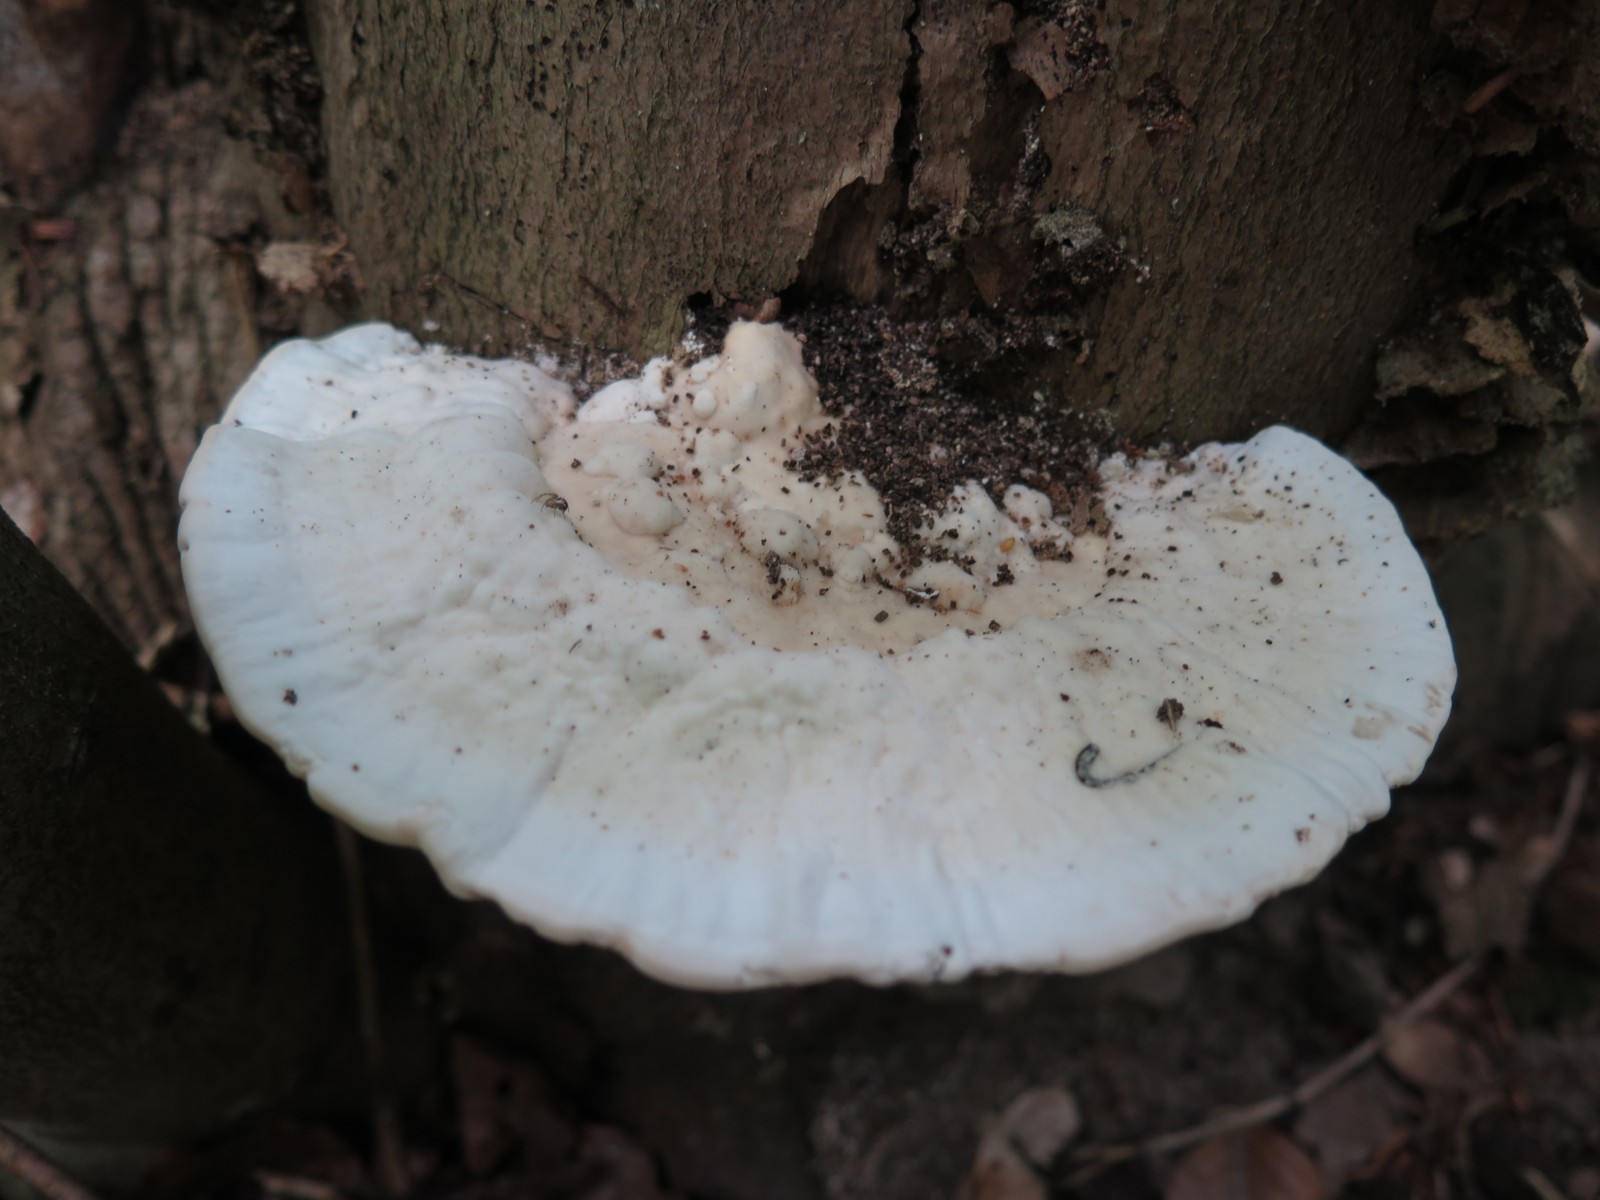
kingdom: Fungi
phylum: Basidiomycota
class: Agaricomycetes
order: Polyporales
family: Polyporaceae
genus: Trametes
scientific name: Trametes hirsuta
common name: håret læderporesvamp
